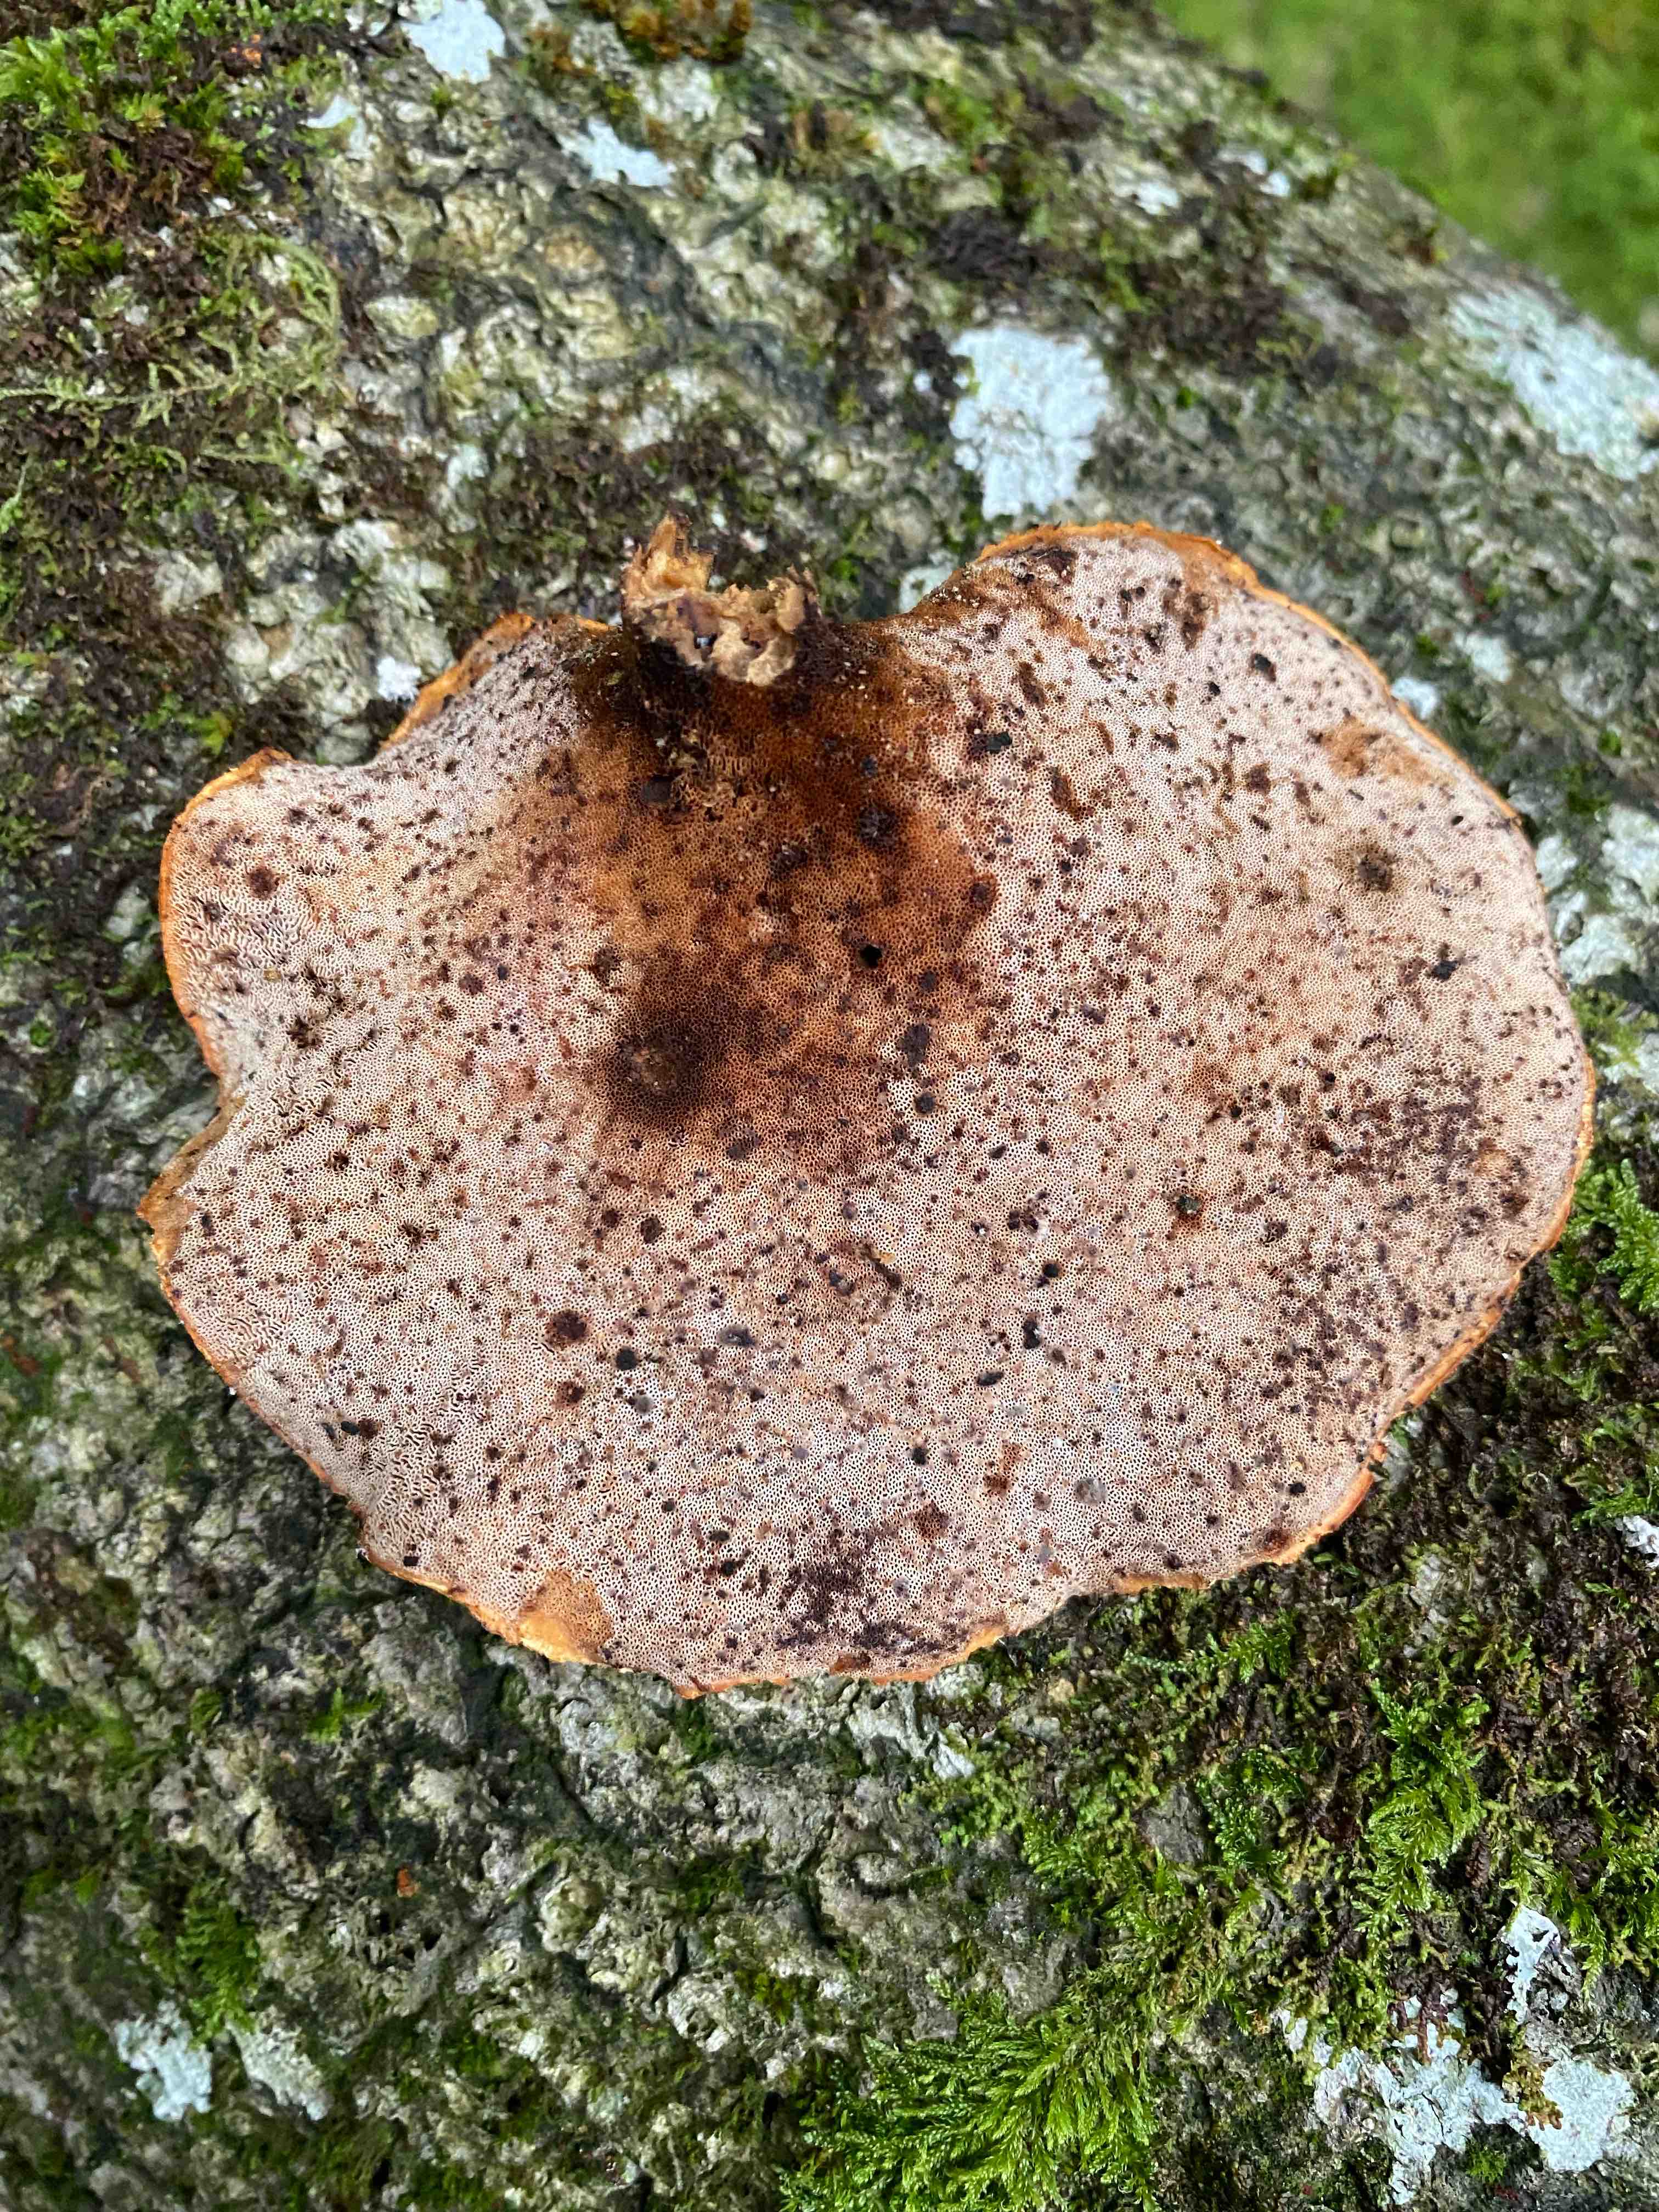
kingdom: Fungi
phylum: Basidiomycota
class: Agaricomycetes
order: Polyporales
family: Polyporaceae
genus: Cerioporus
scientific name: Cerioporus varius
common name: foranderlig stilkporesvamp
